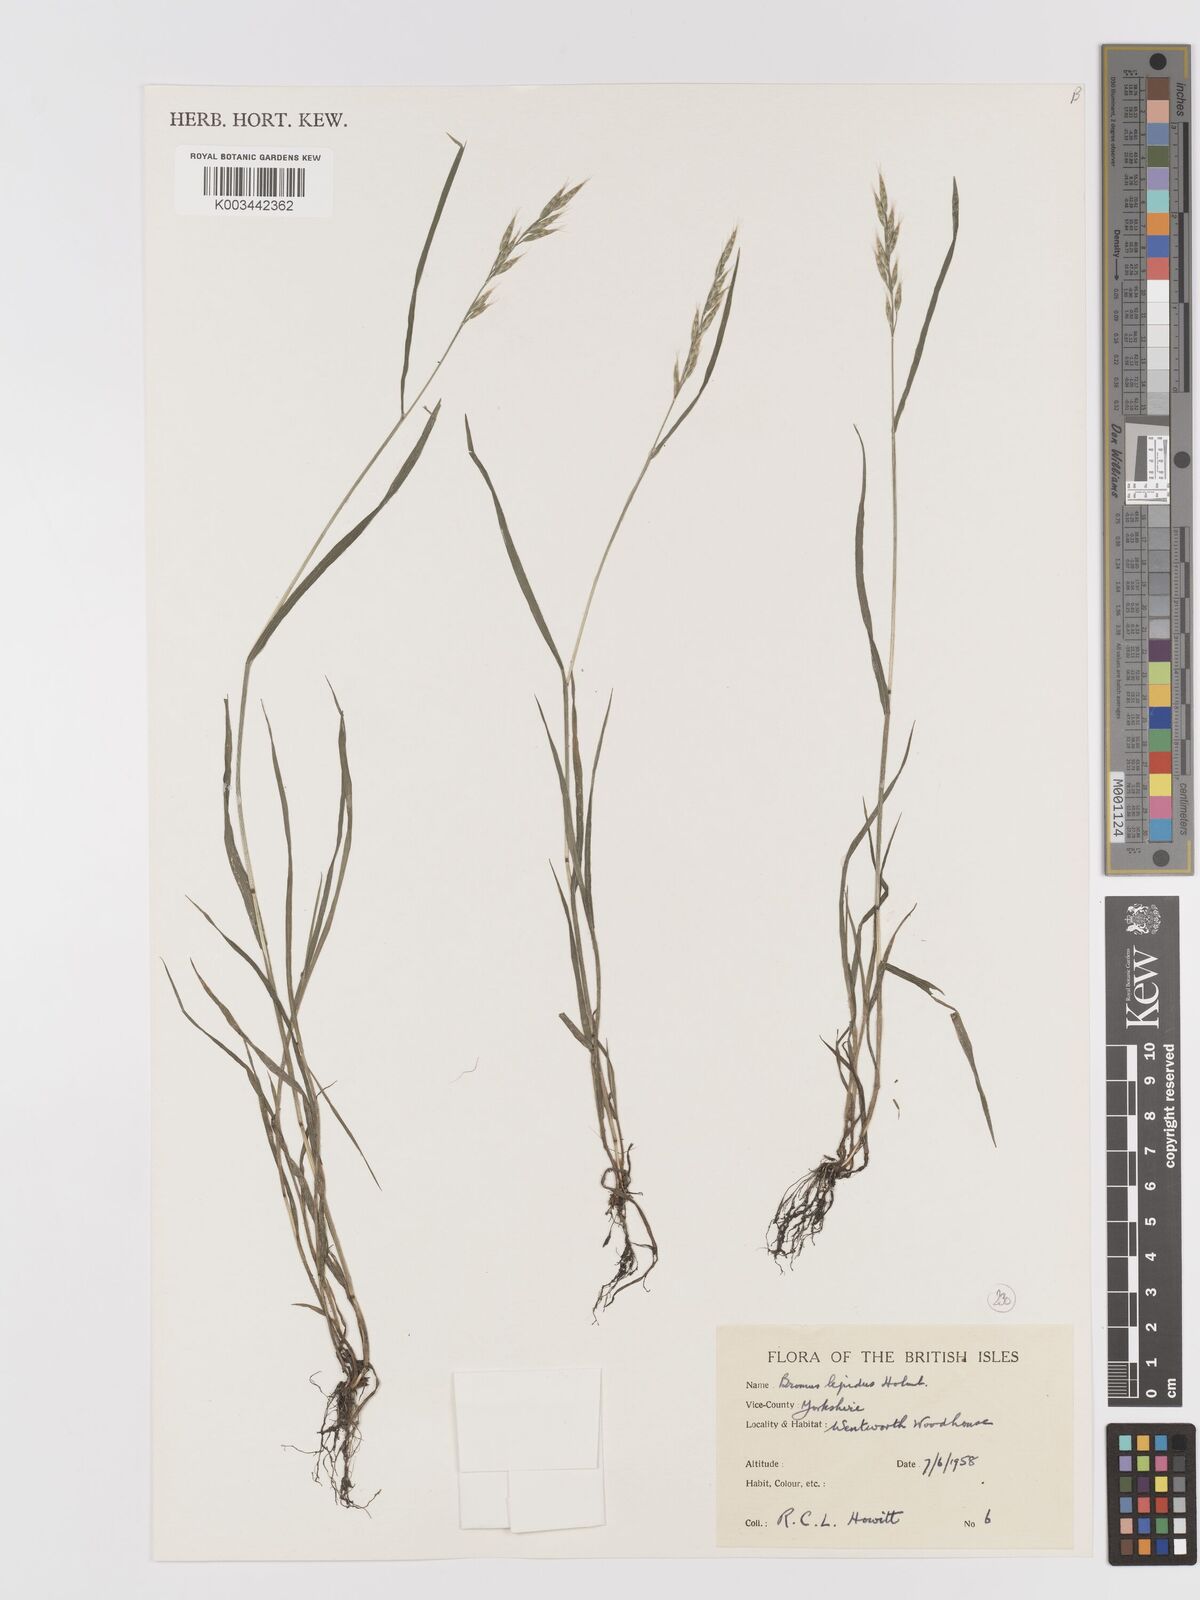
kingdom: Plantae
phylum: Tracheophyta
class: Liliopsida
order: Poales
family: Poaceae
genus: Bromus
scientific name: Bromus lepidus
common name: Slender soft-brome
